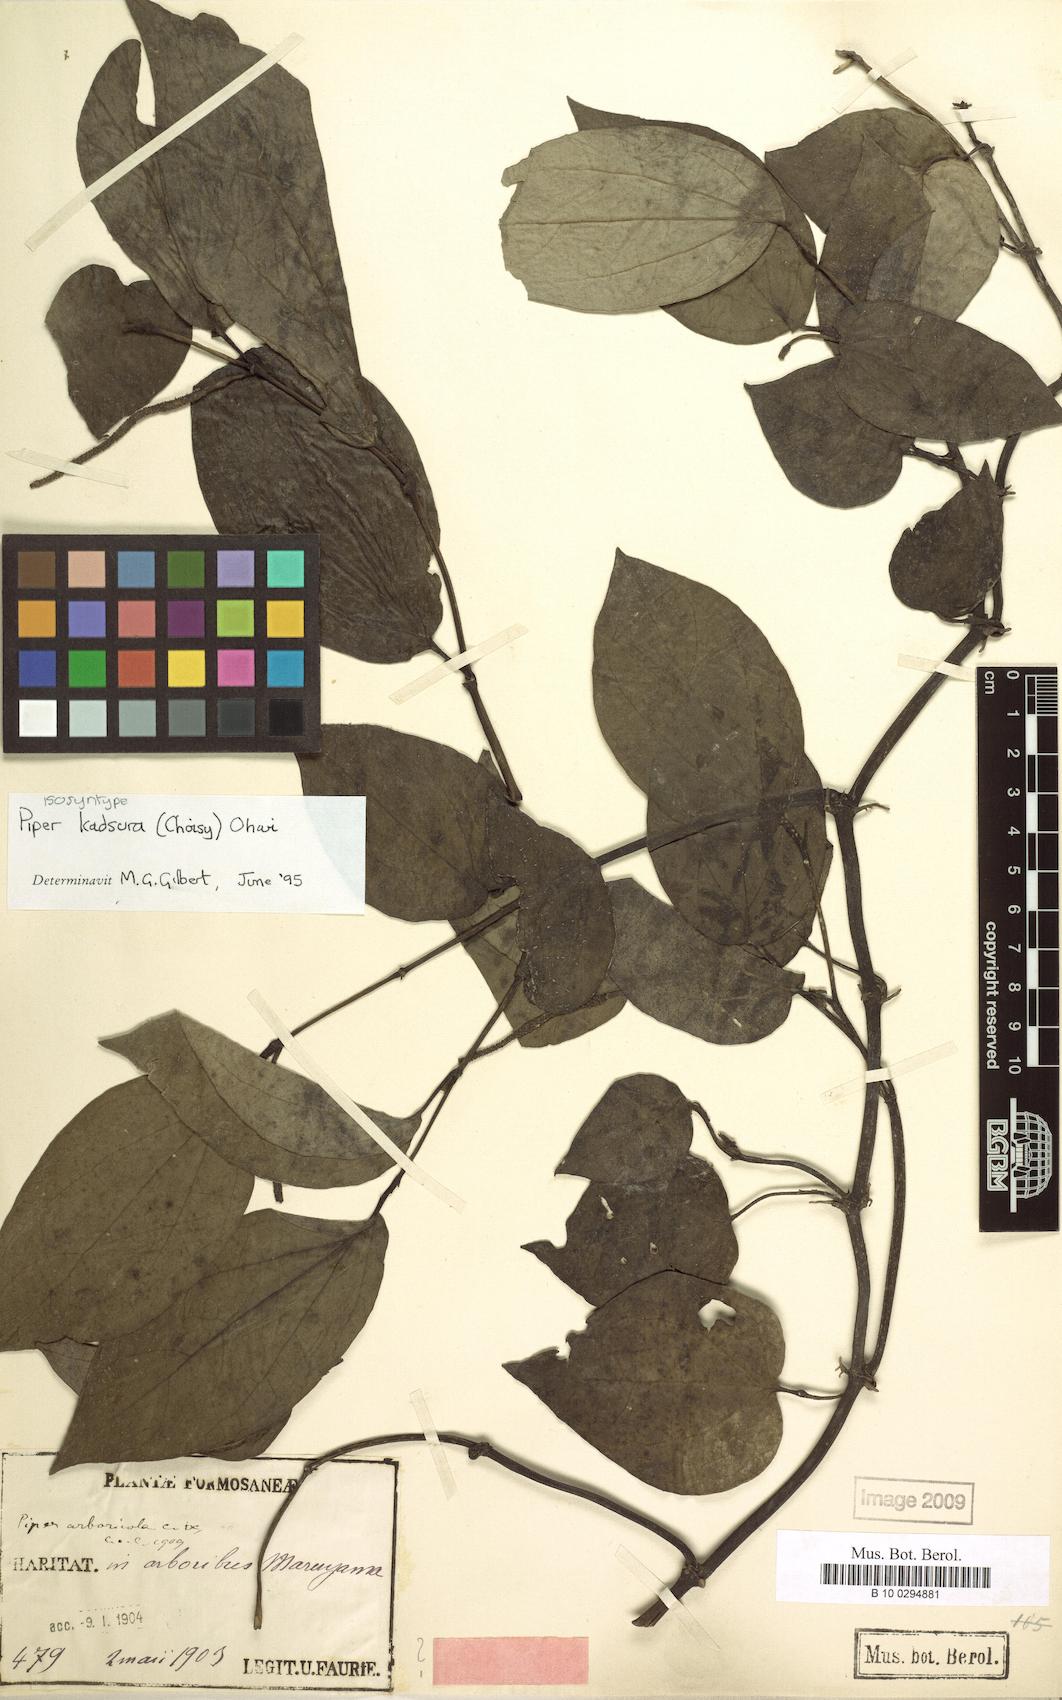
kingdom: Plantae
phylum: Tracheophyta
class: Magnoliopsida
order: Piperales
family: Piperaceae
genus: Piper
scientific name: Piper kadsura
